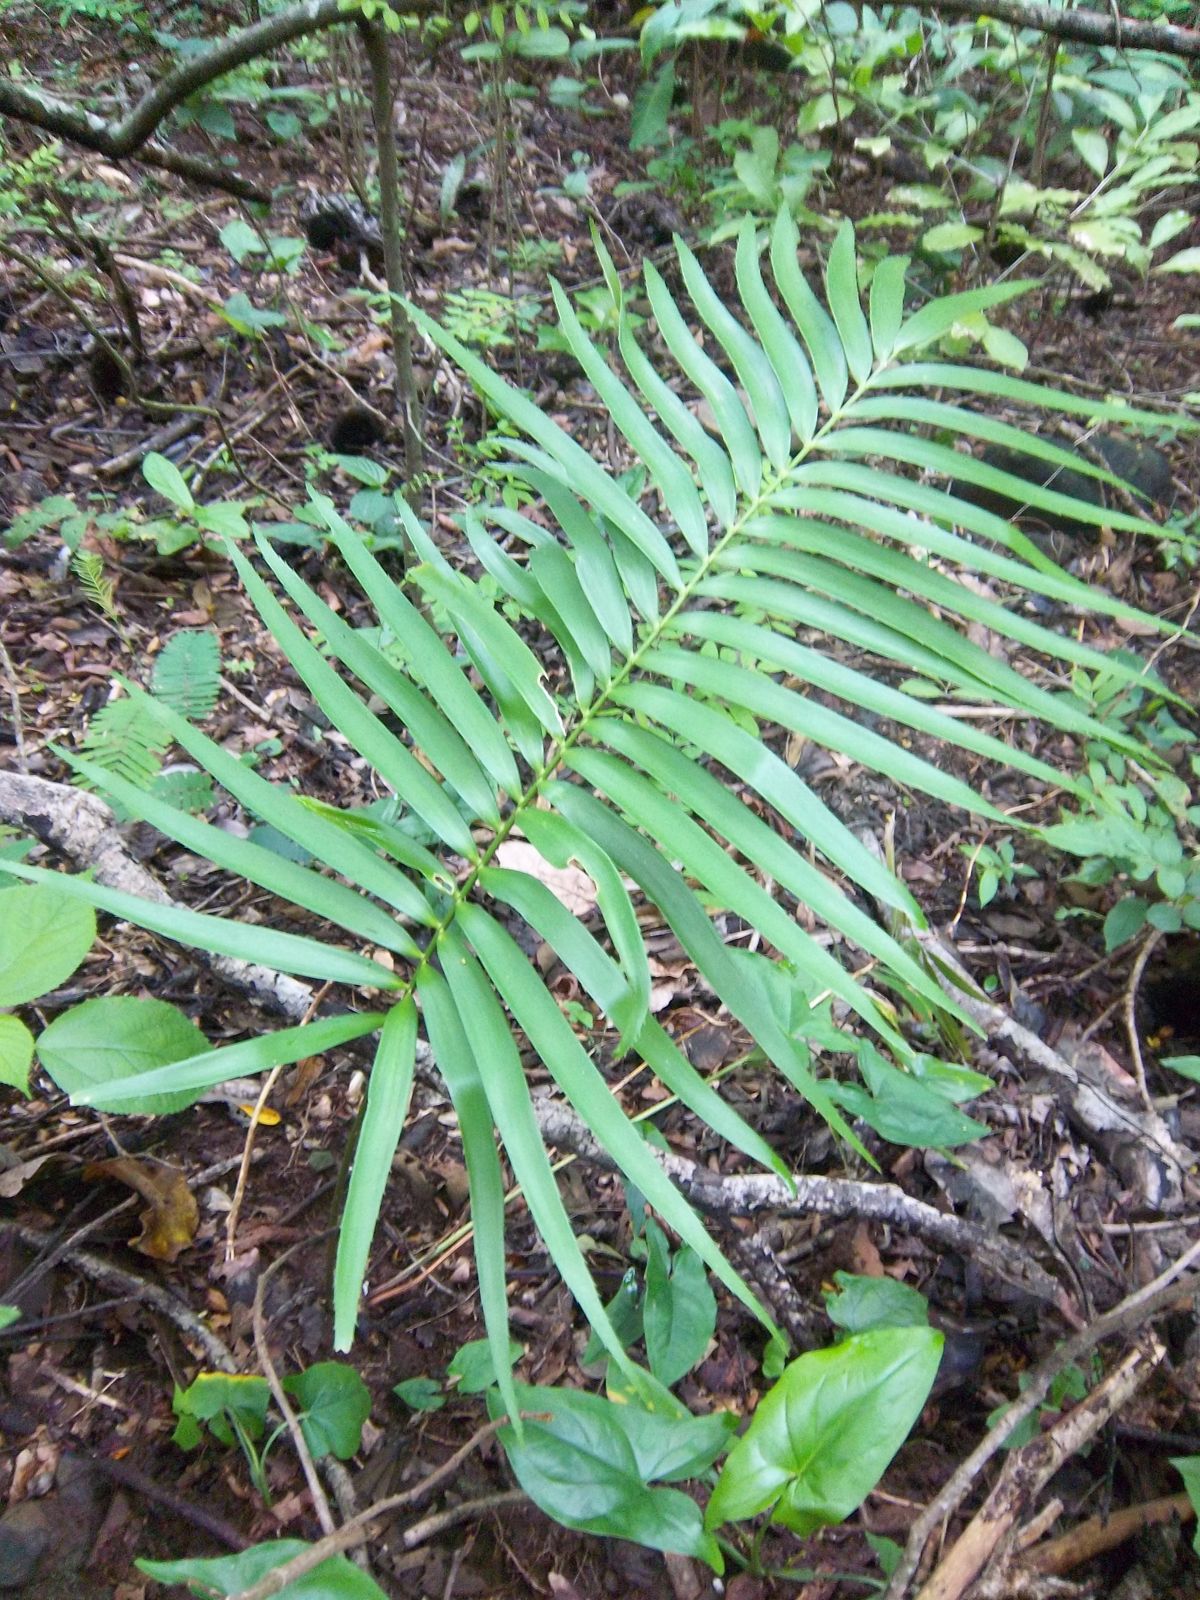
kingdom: Plantae
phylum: Tracheophyta
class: Cycadopsida
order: Cycadales
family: Zamiaceae
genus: Zamia
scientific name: Zamia herrerae
